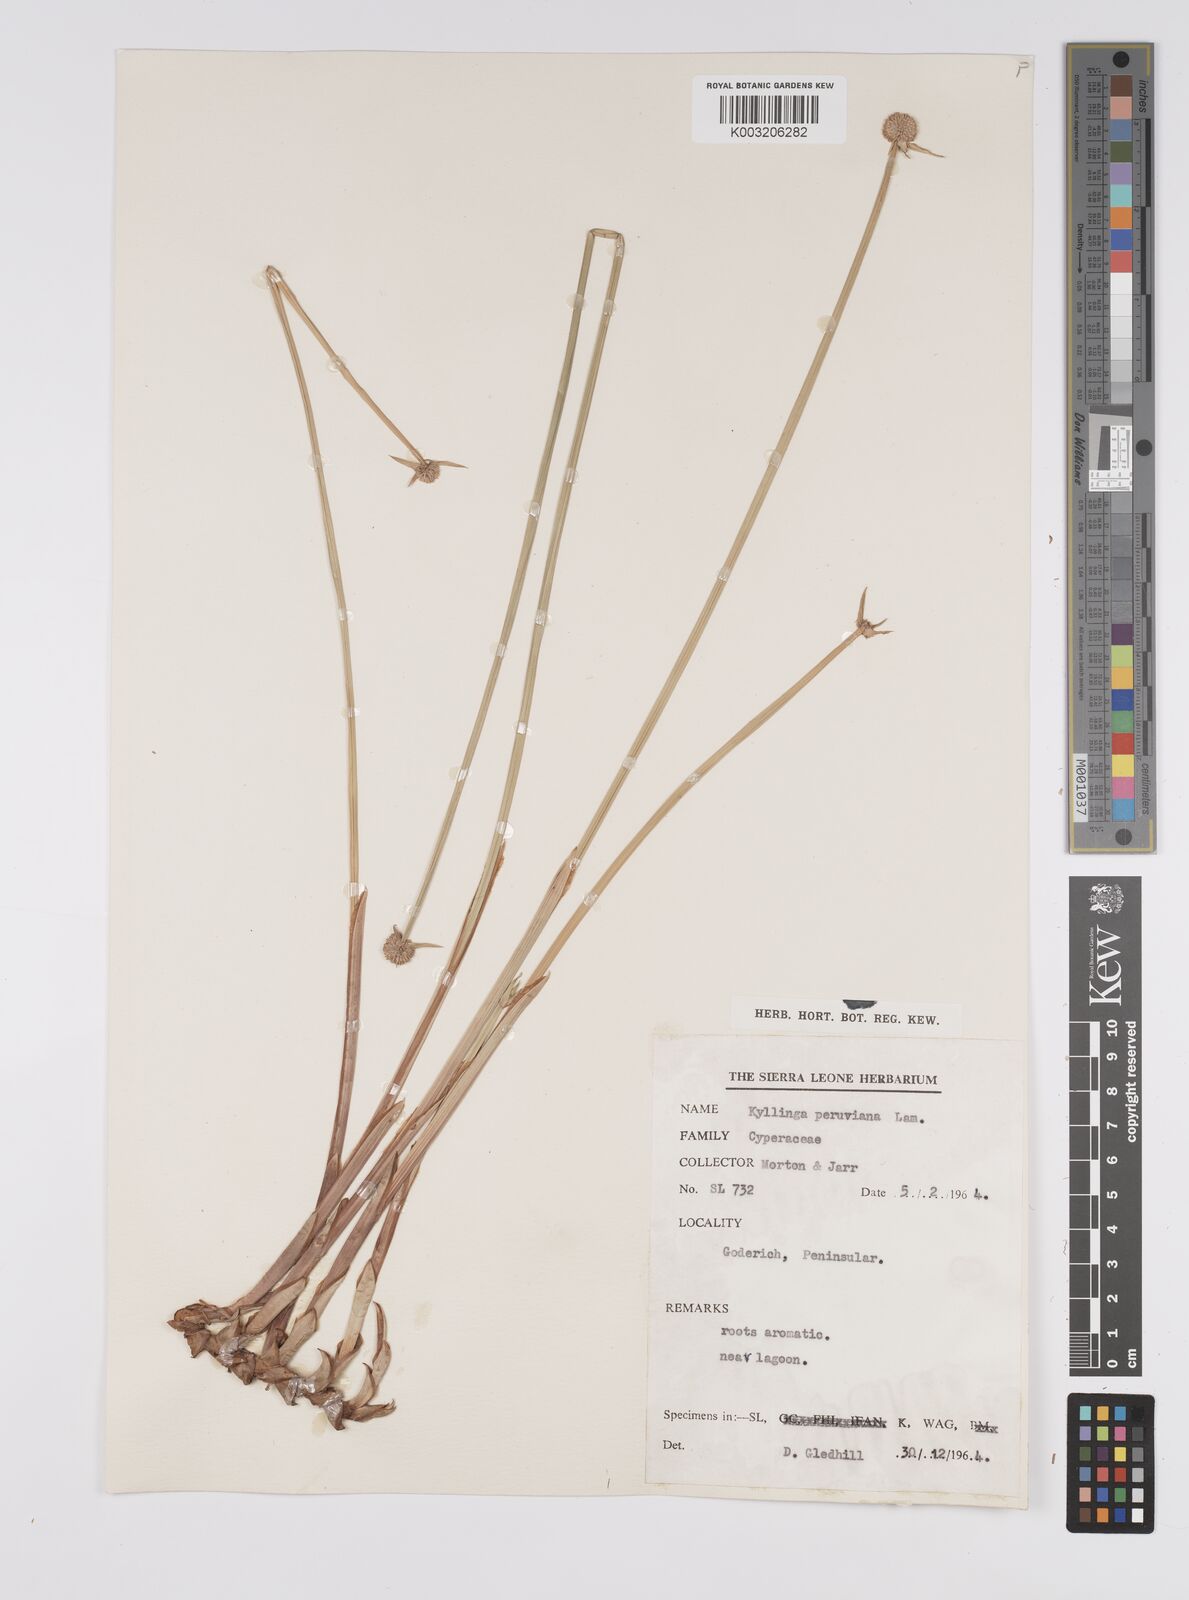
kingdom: Plantae
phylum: Tracheophyta
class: Liliopsida
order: Poales
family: Cyperaceae
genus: Cyperus
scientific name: Cyperus obtusatus
